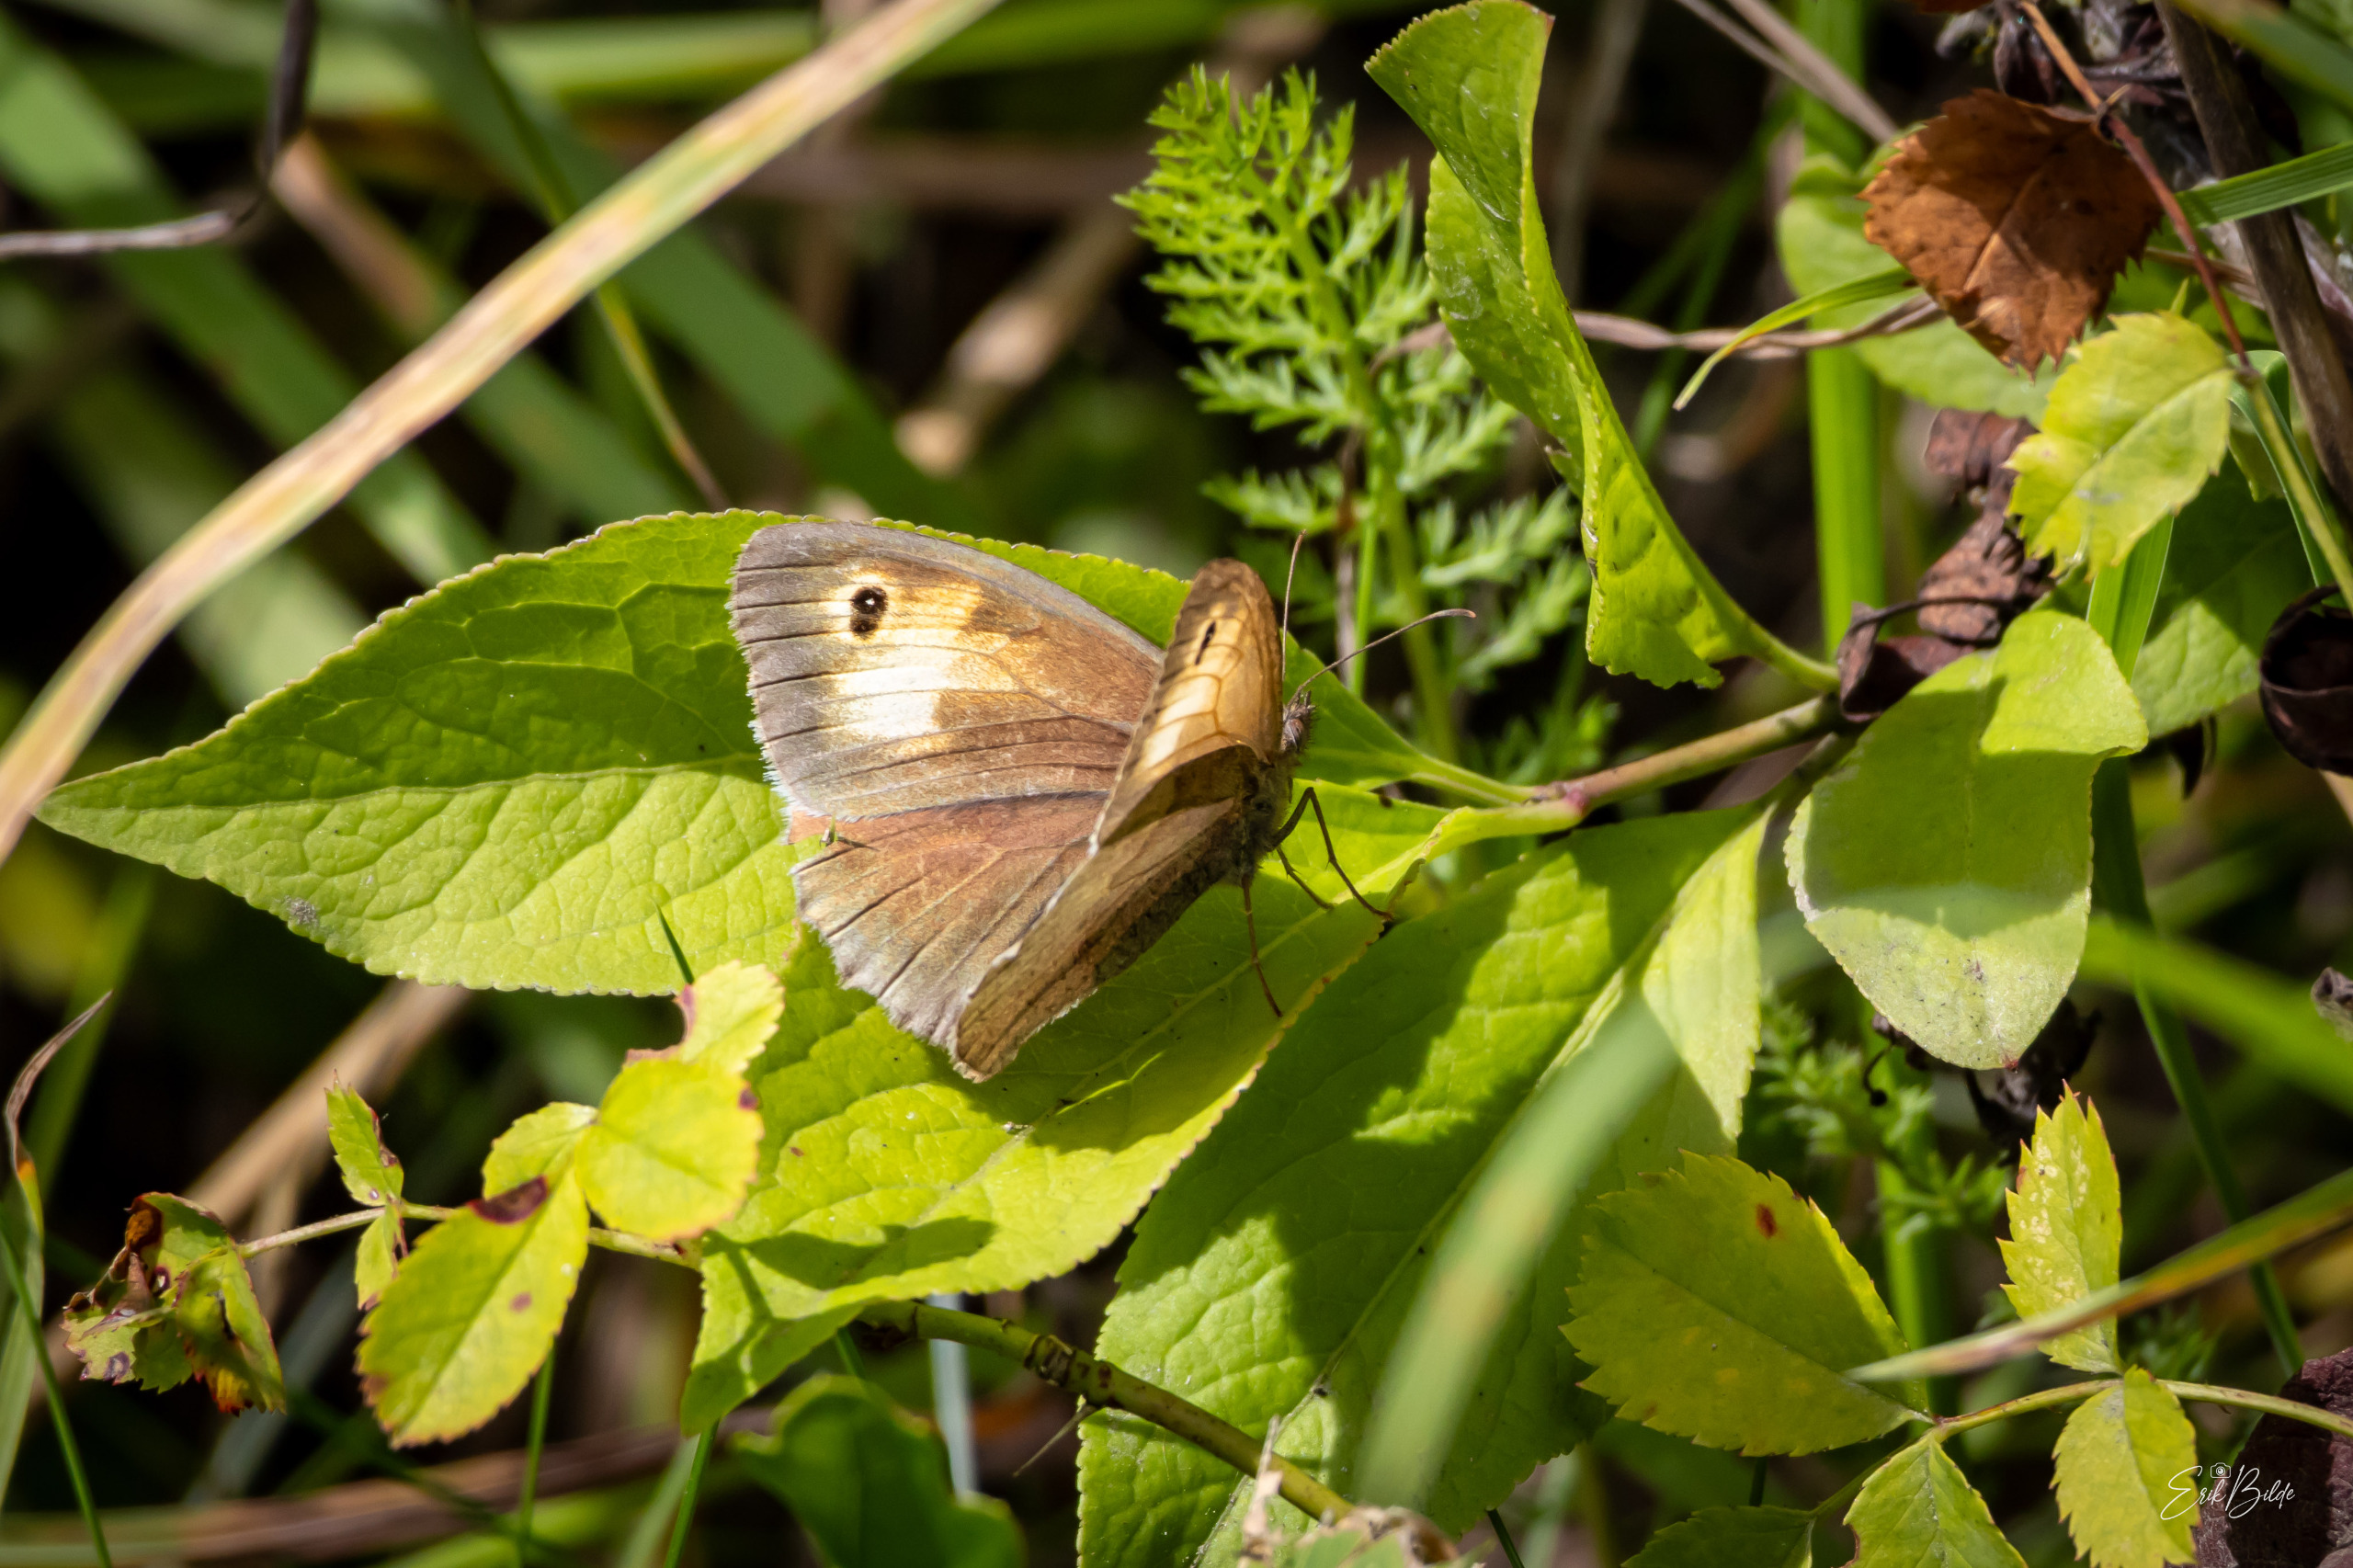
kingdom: Animalia
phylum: Arthropoda
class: Insecta
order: Lepidoptera
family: Nymphalidae
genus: Maniola
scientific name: Maniola jurtina
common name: Græsrandøje
